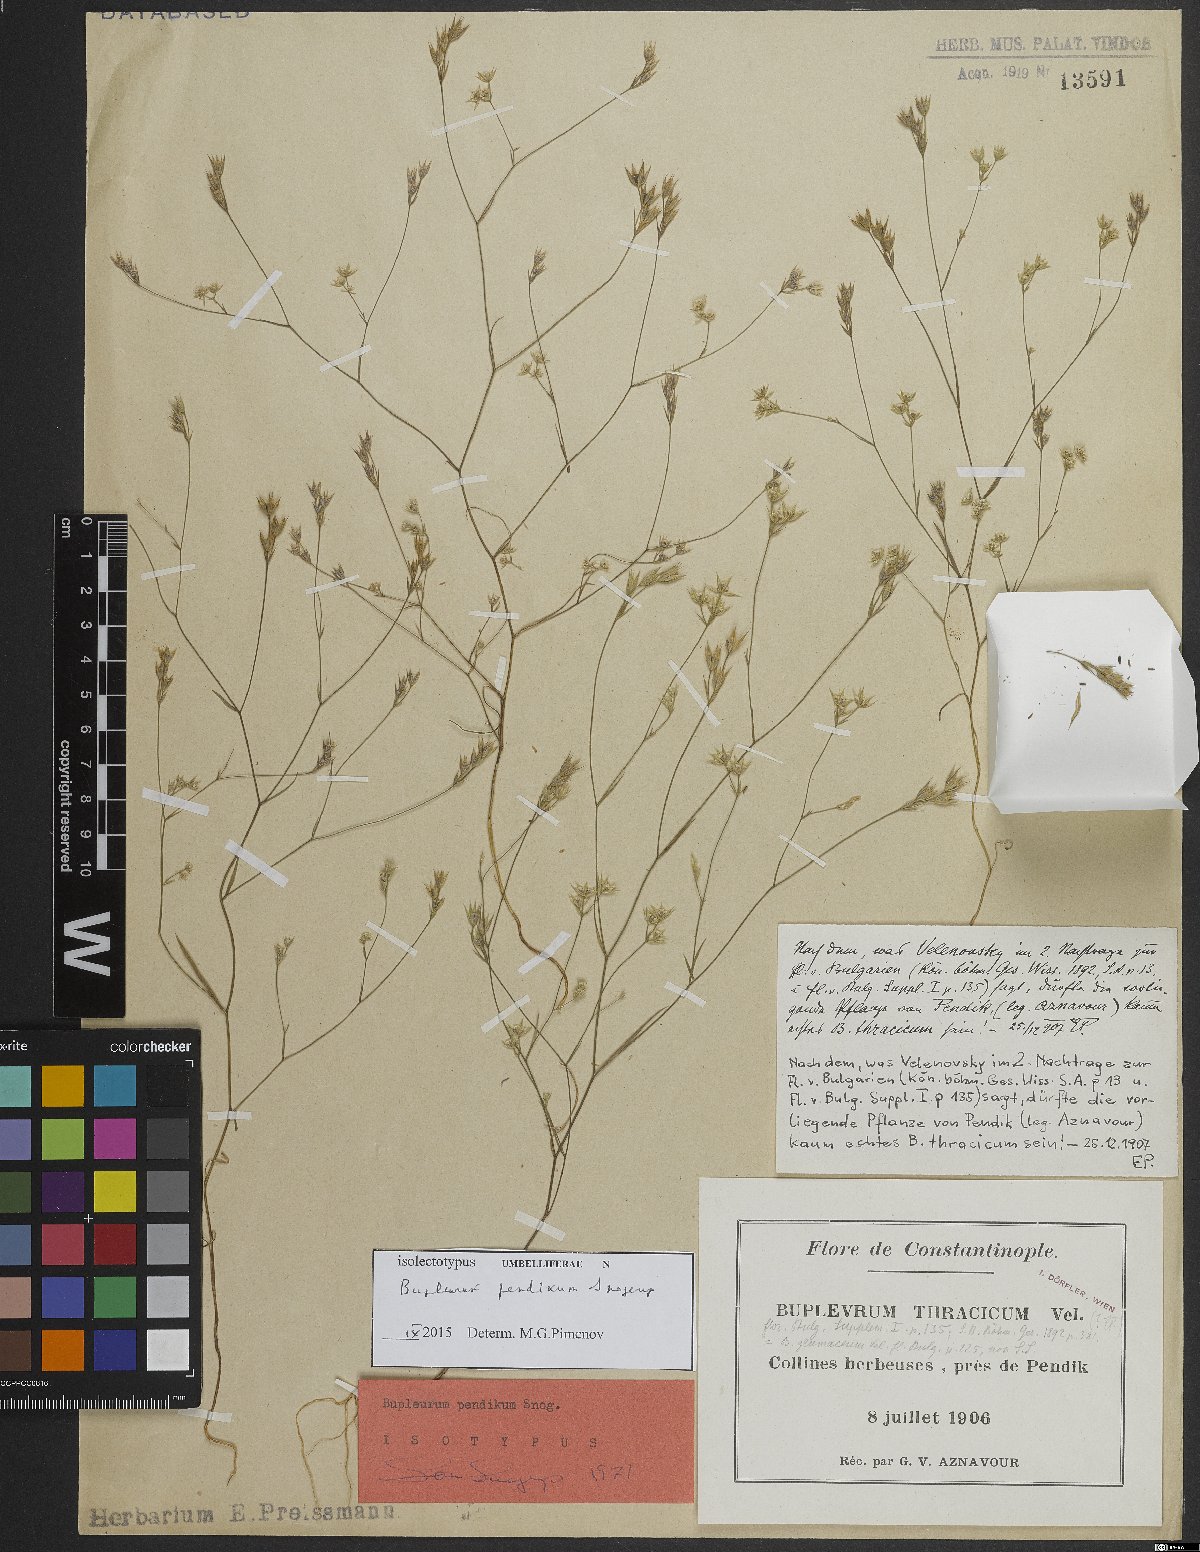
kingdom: Plantae
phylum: Tracheophyta
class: Magnoliopsida
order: Apiales
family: Apiaceae
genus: Bupleurum
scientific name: Bupleurum pendikum
